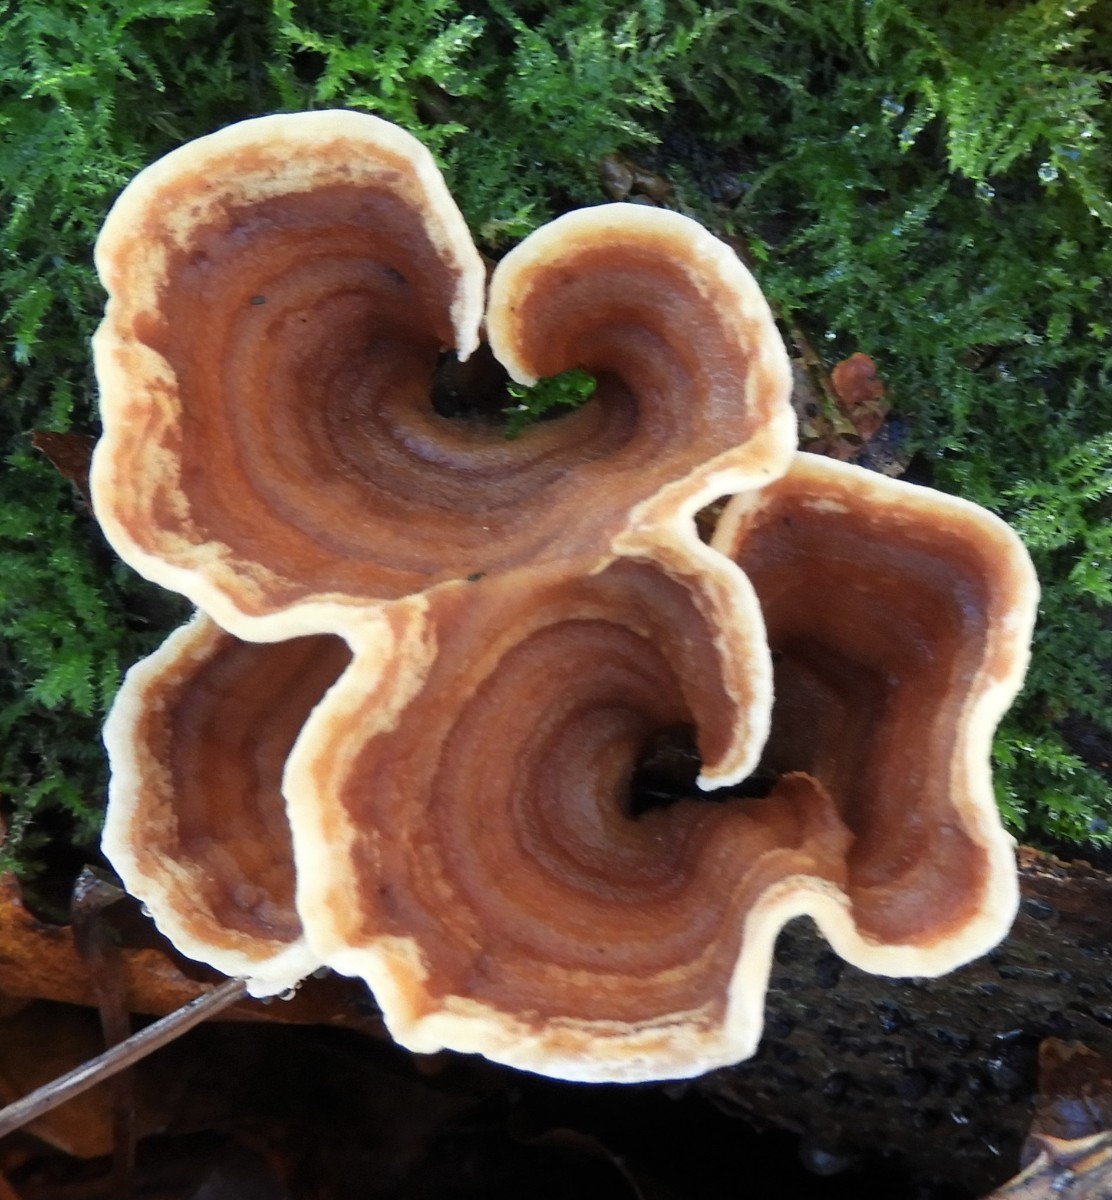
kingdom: Fungi
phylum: Basidiomycota
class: Agaricomycetes
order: Russulales
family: Stereaceae
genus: Stereum
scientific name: Stereum subtomentosum
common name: smuk lædersvamp
